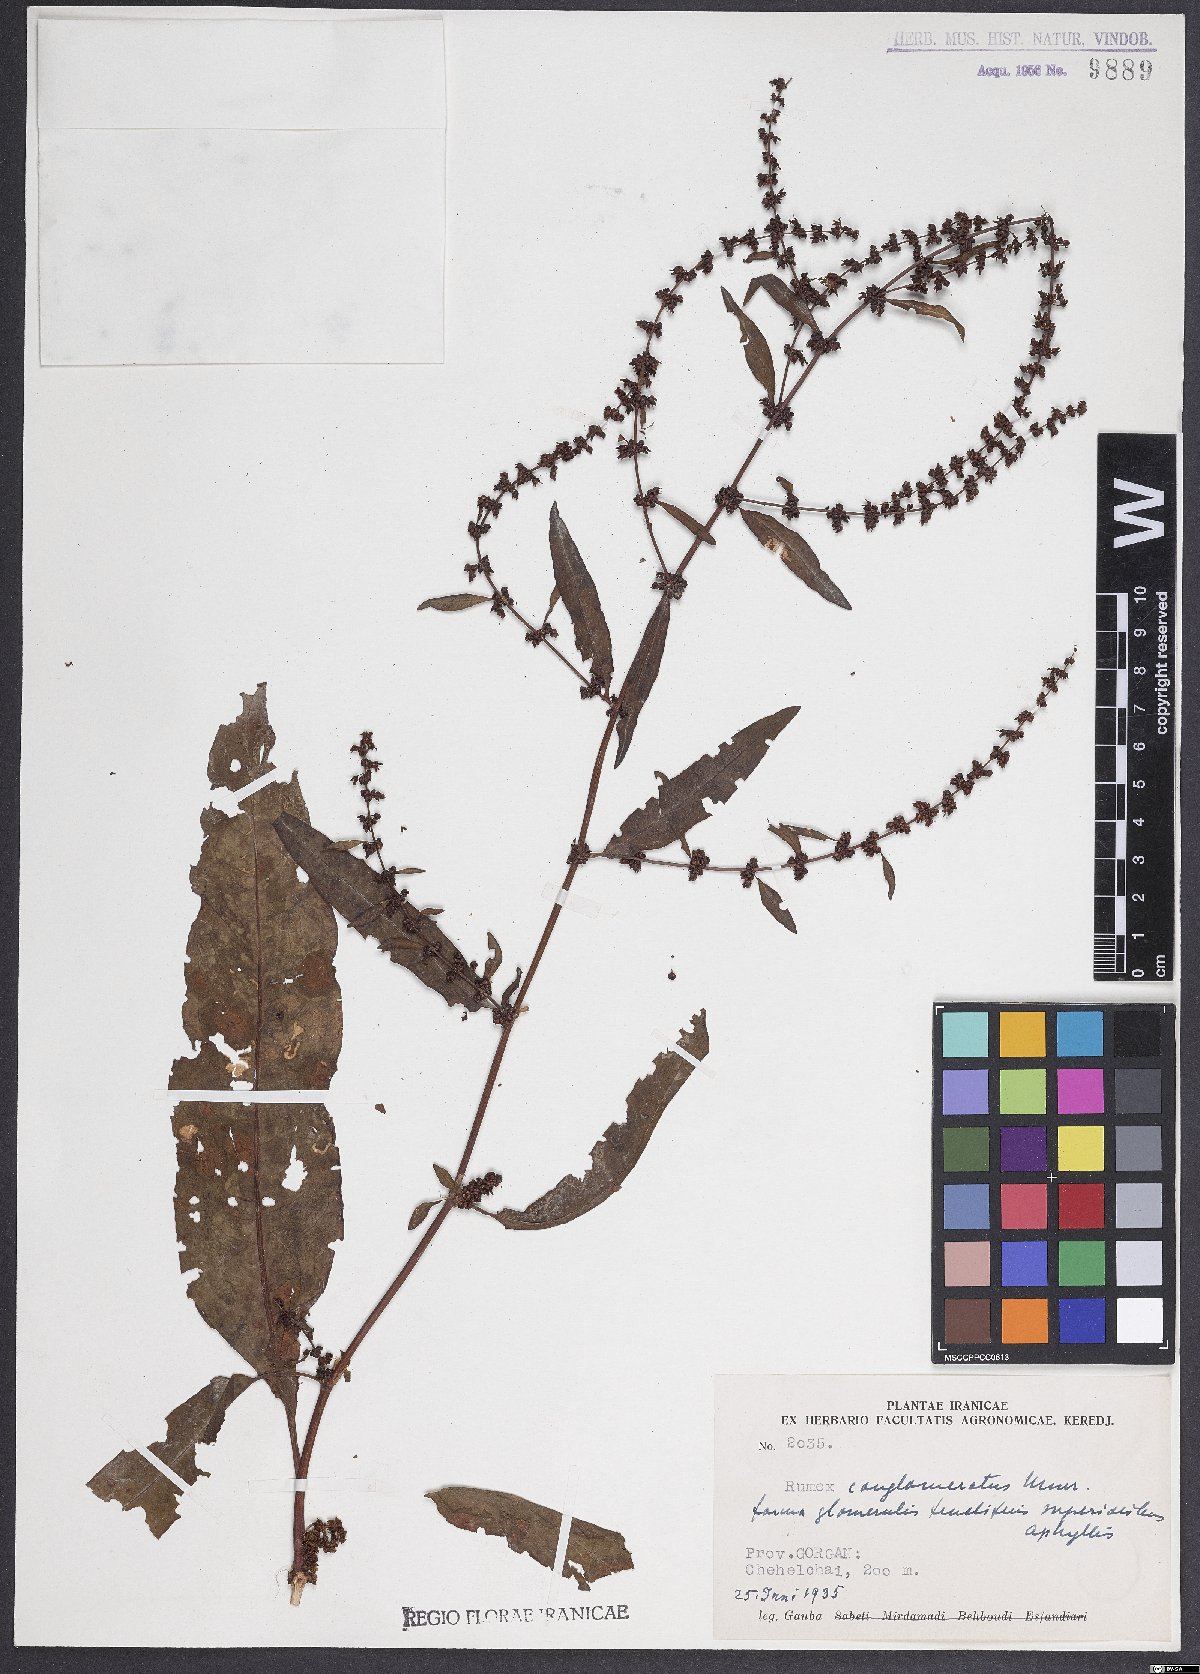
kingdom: Plantae
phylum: Tracheophyta
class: Magnoliopsida
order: Caryophyllales
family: Polygonaceae
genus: Rumex
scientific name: Rumex conglomeratus
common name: Clustered dock
